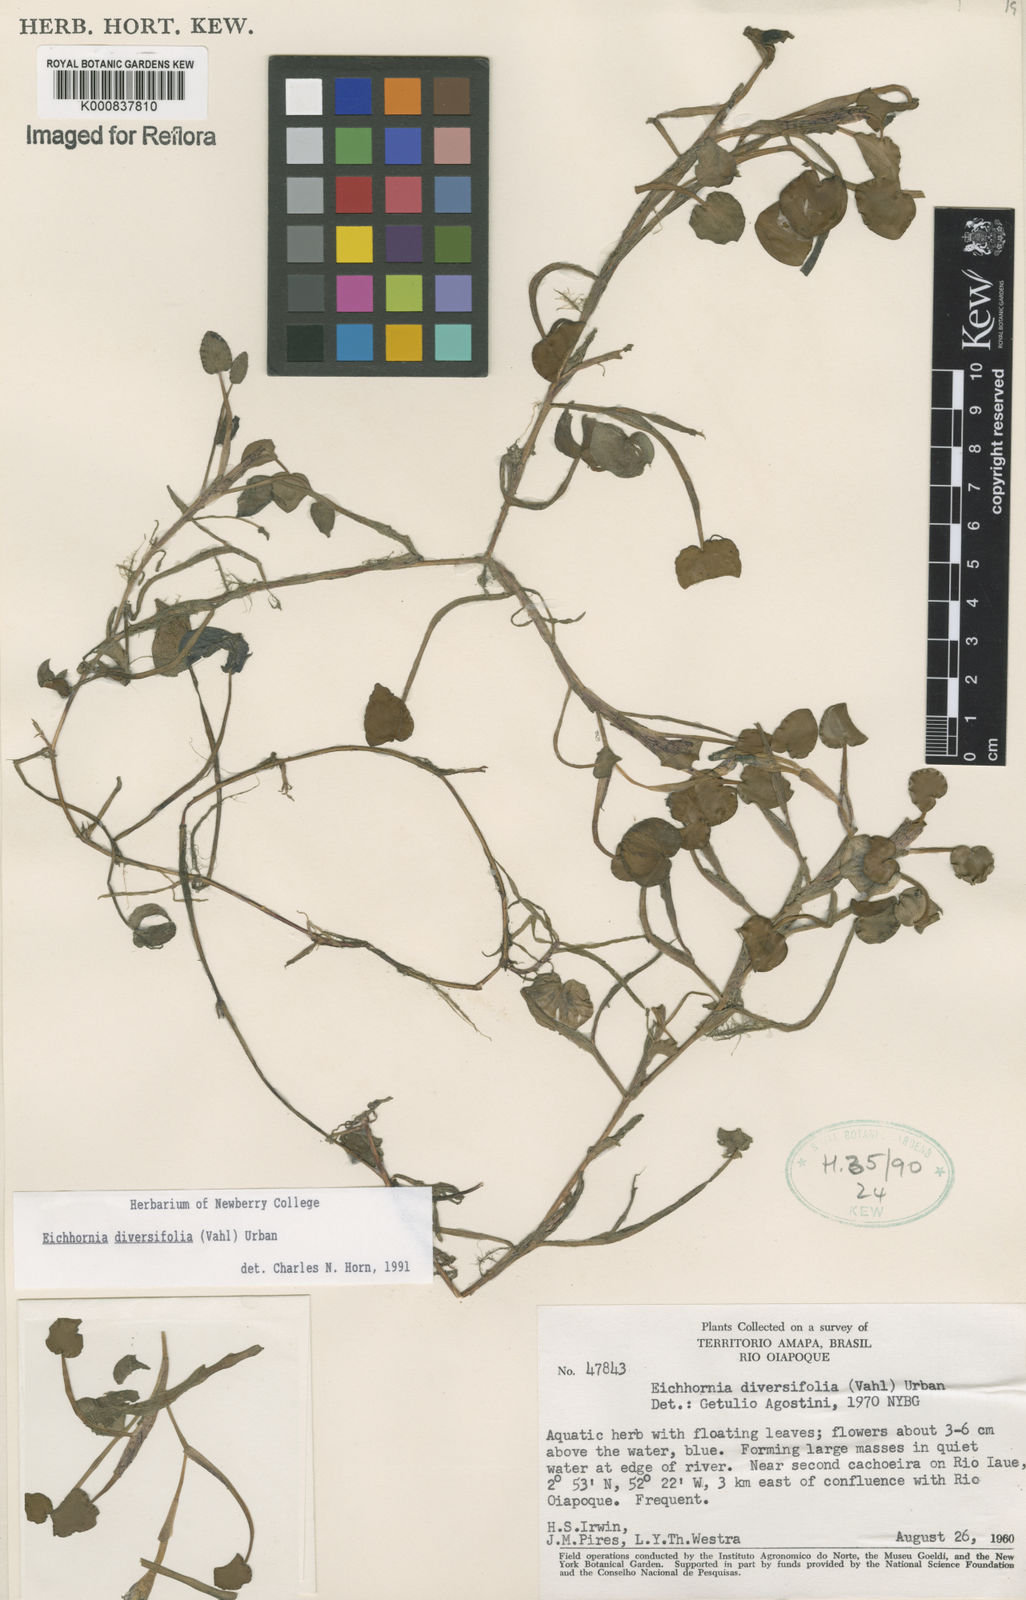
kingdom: Plantae
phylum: Tracheophyta
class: Liliopsida
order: Commelinales
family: Pontederiaceae
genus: Pontederia
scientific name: Pontederia diversifolia
